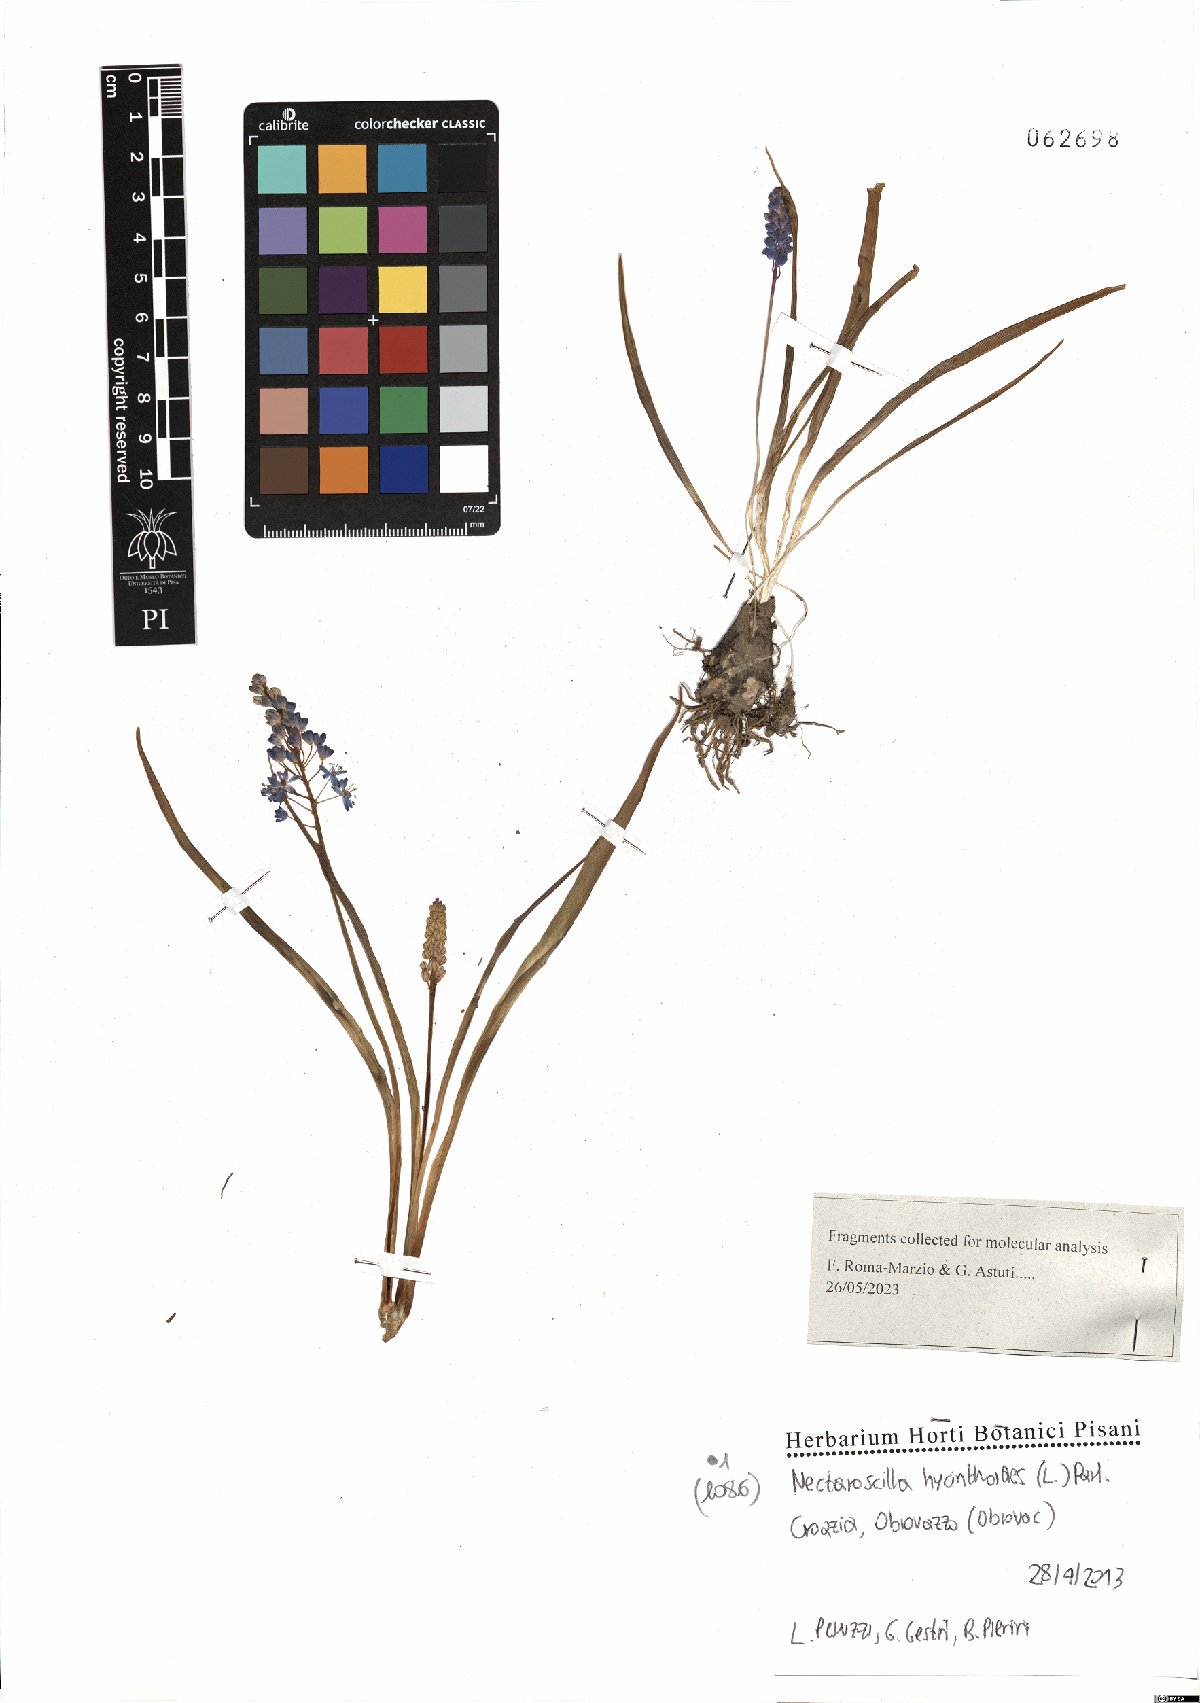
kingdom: Plantae
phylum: Tracheophyta
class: Liliopsida
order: Asparagales
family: Asparagaceae
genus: Scilla
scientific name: Scilla hyacinthoides
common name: Scilla
